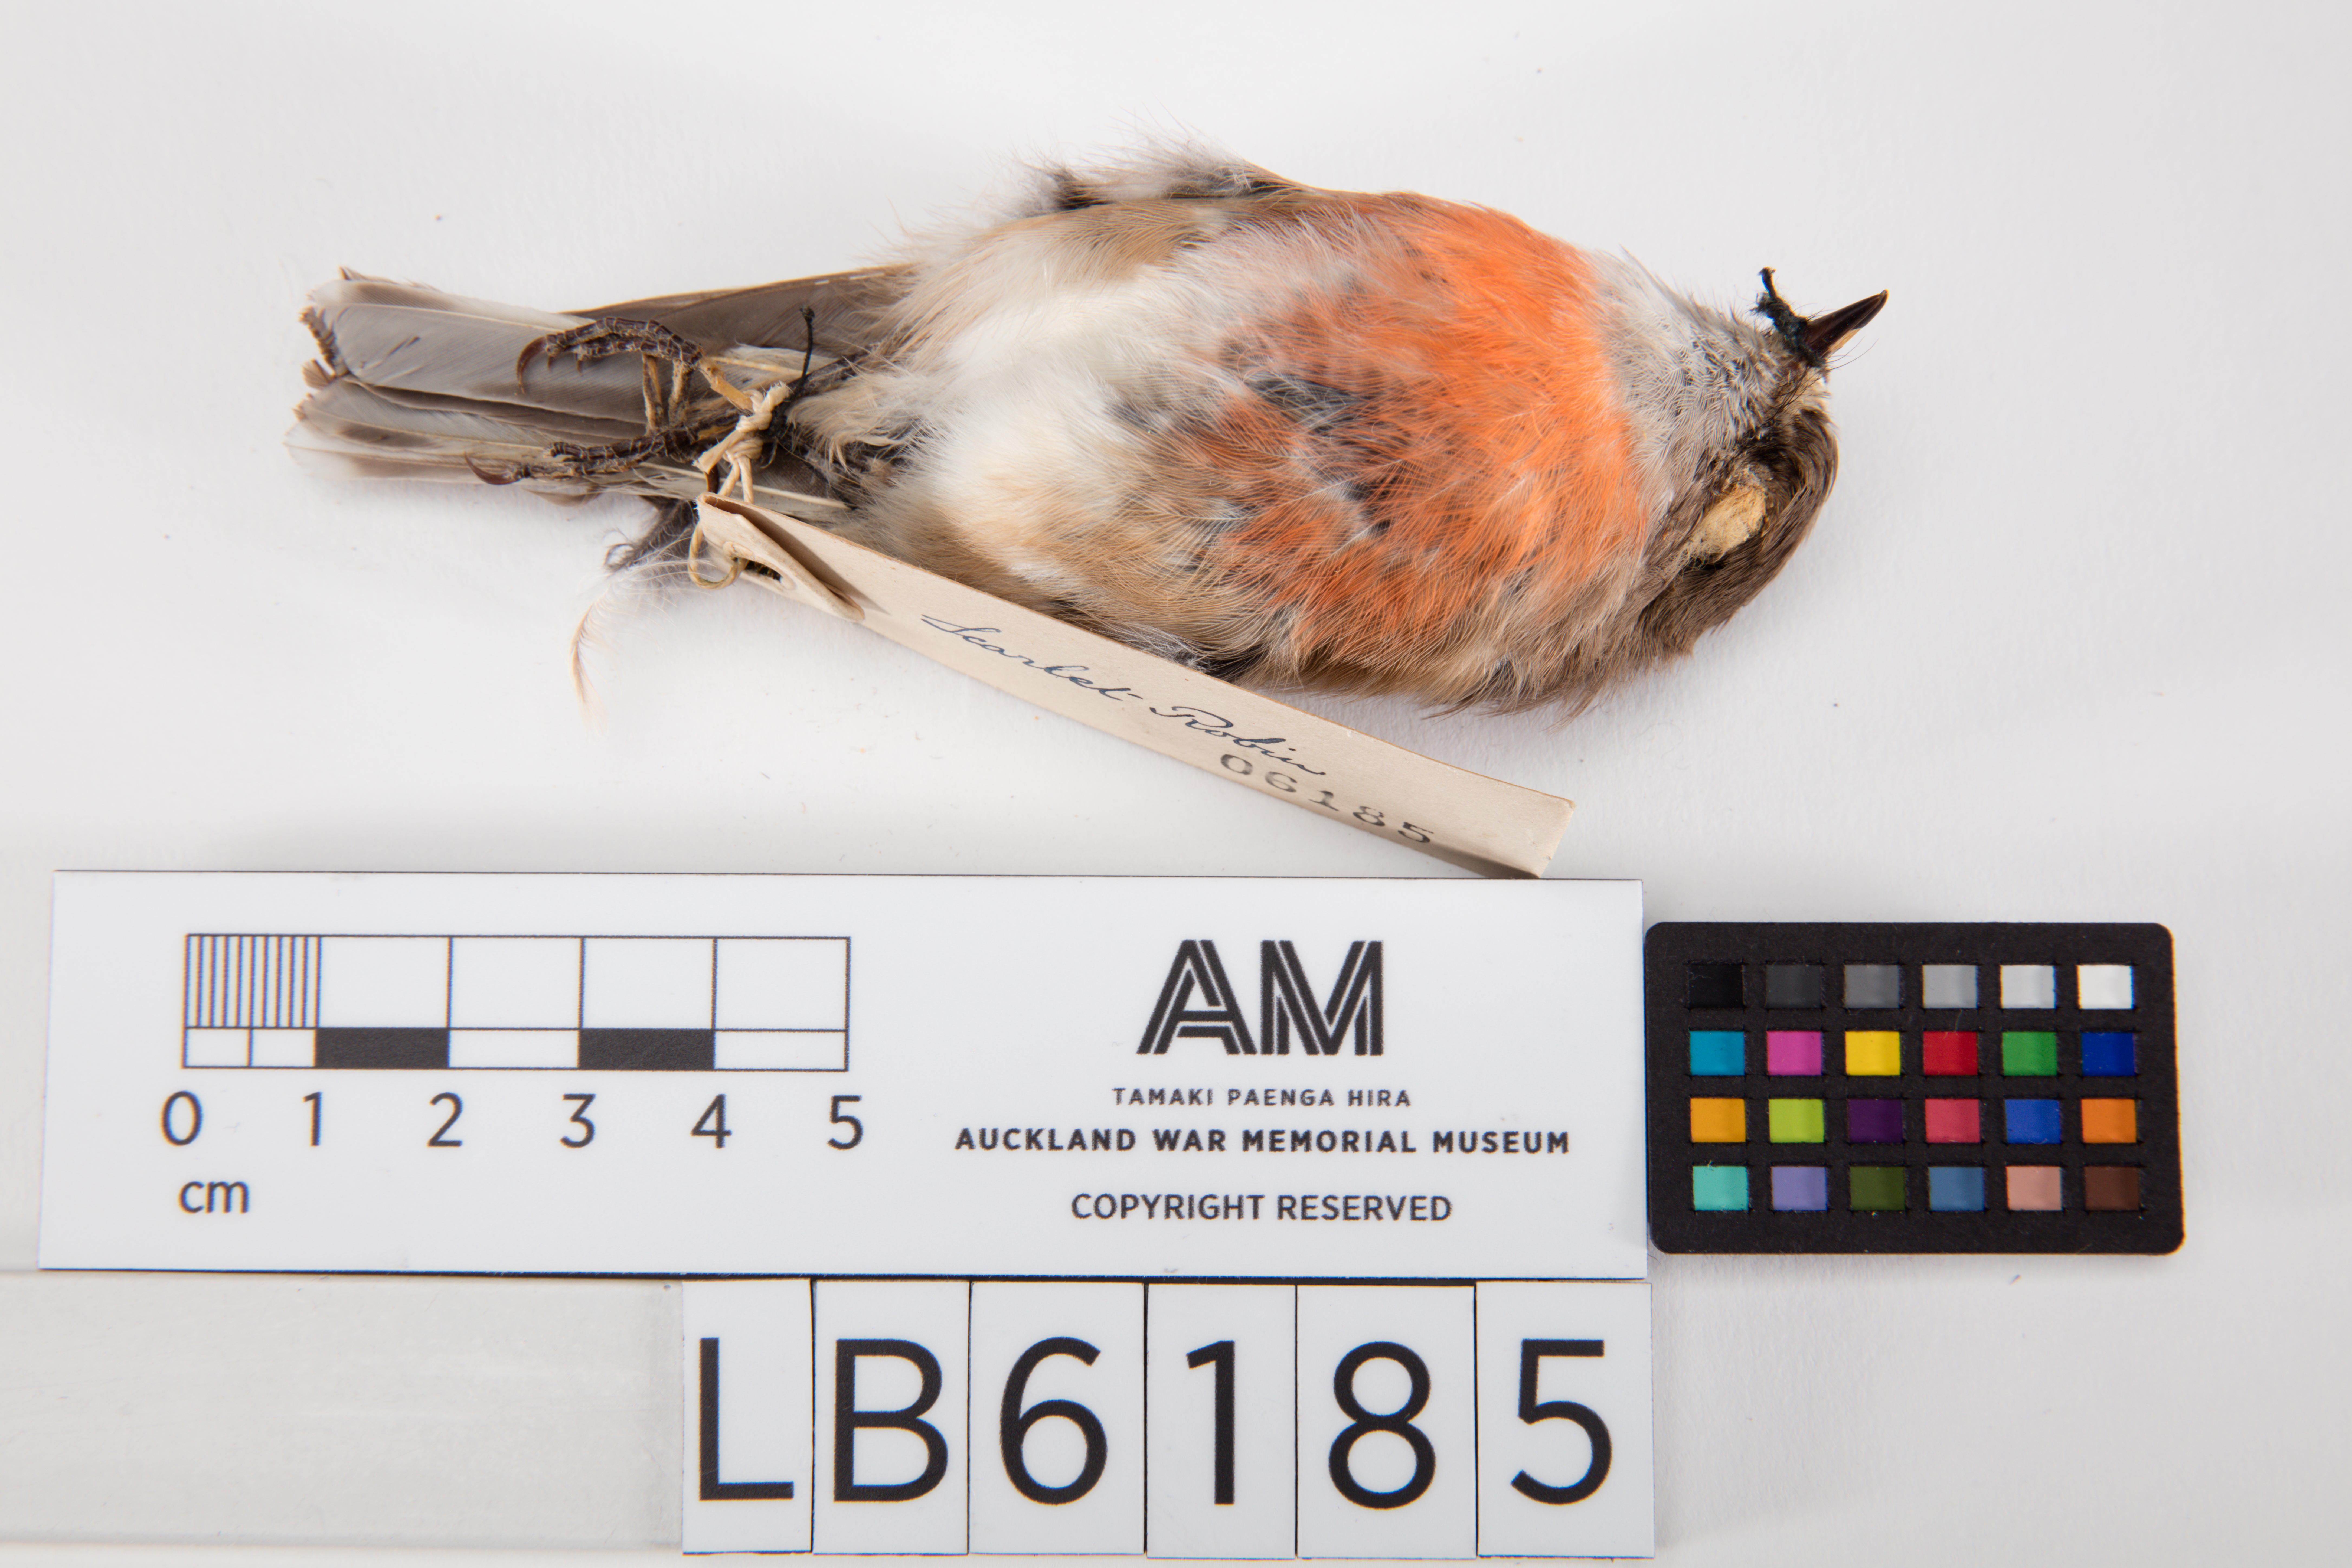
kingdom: Animalia
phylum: Chordata
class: Aves
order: Passeriformes
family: Petroicidae
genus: Petroica
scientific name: Petroica multicolor
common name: Pacific robin
